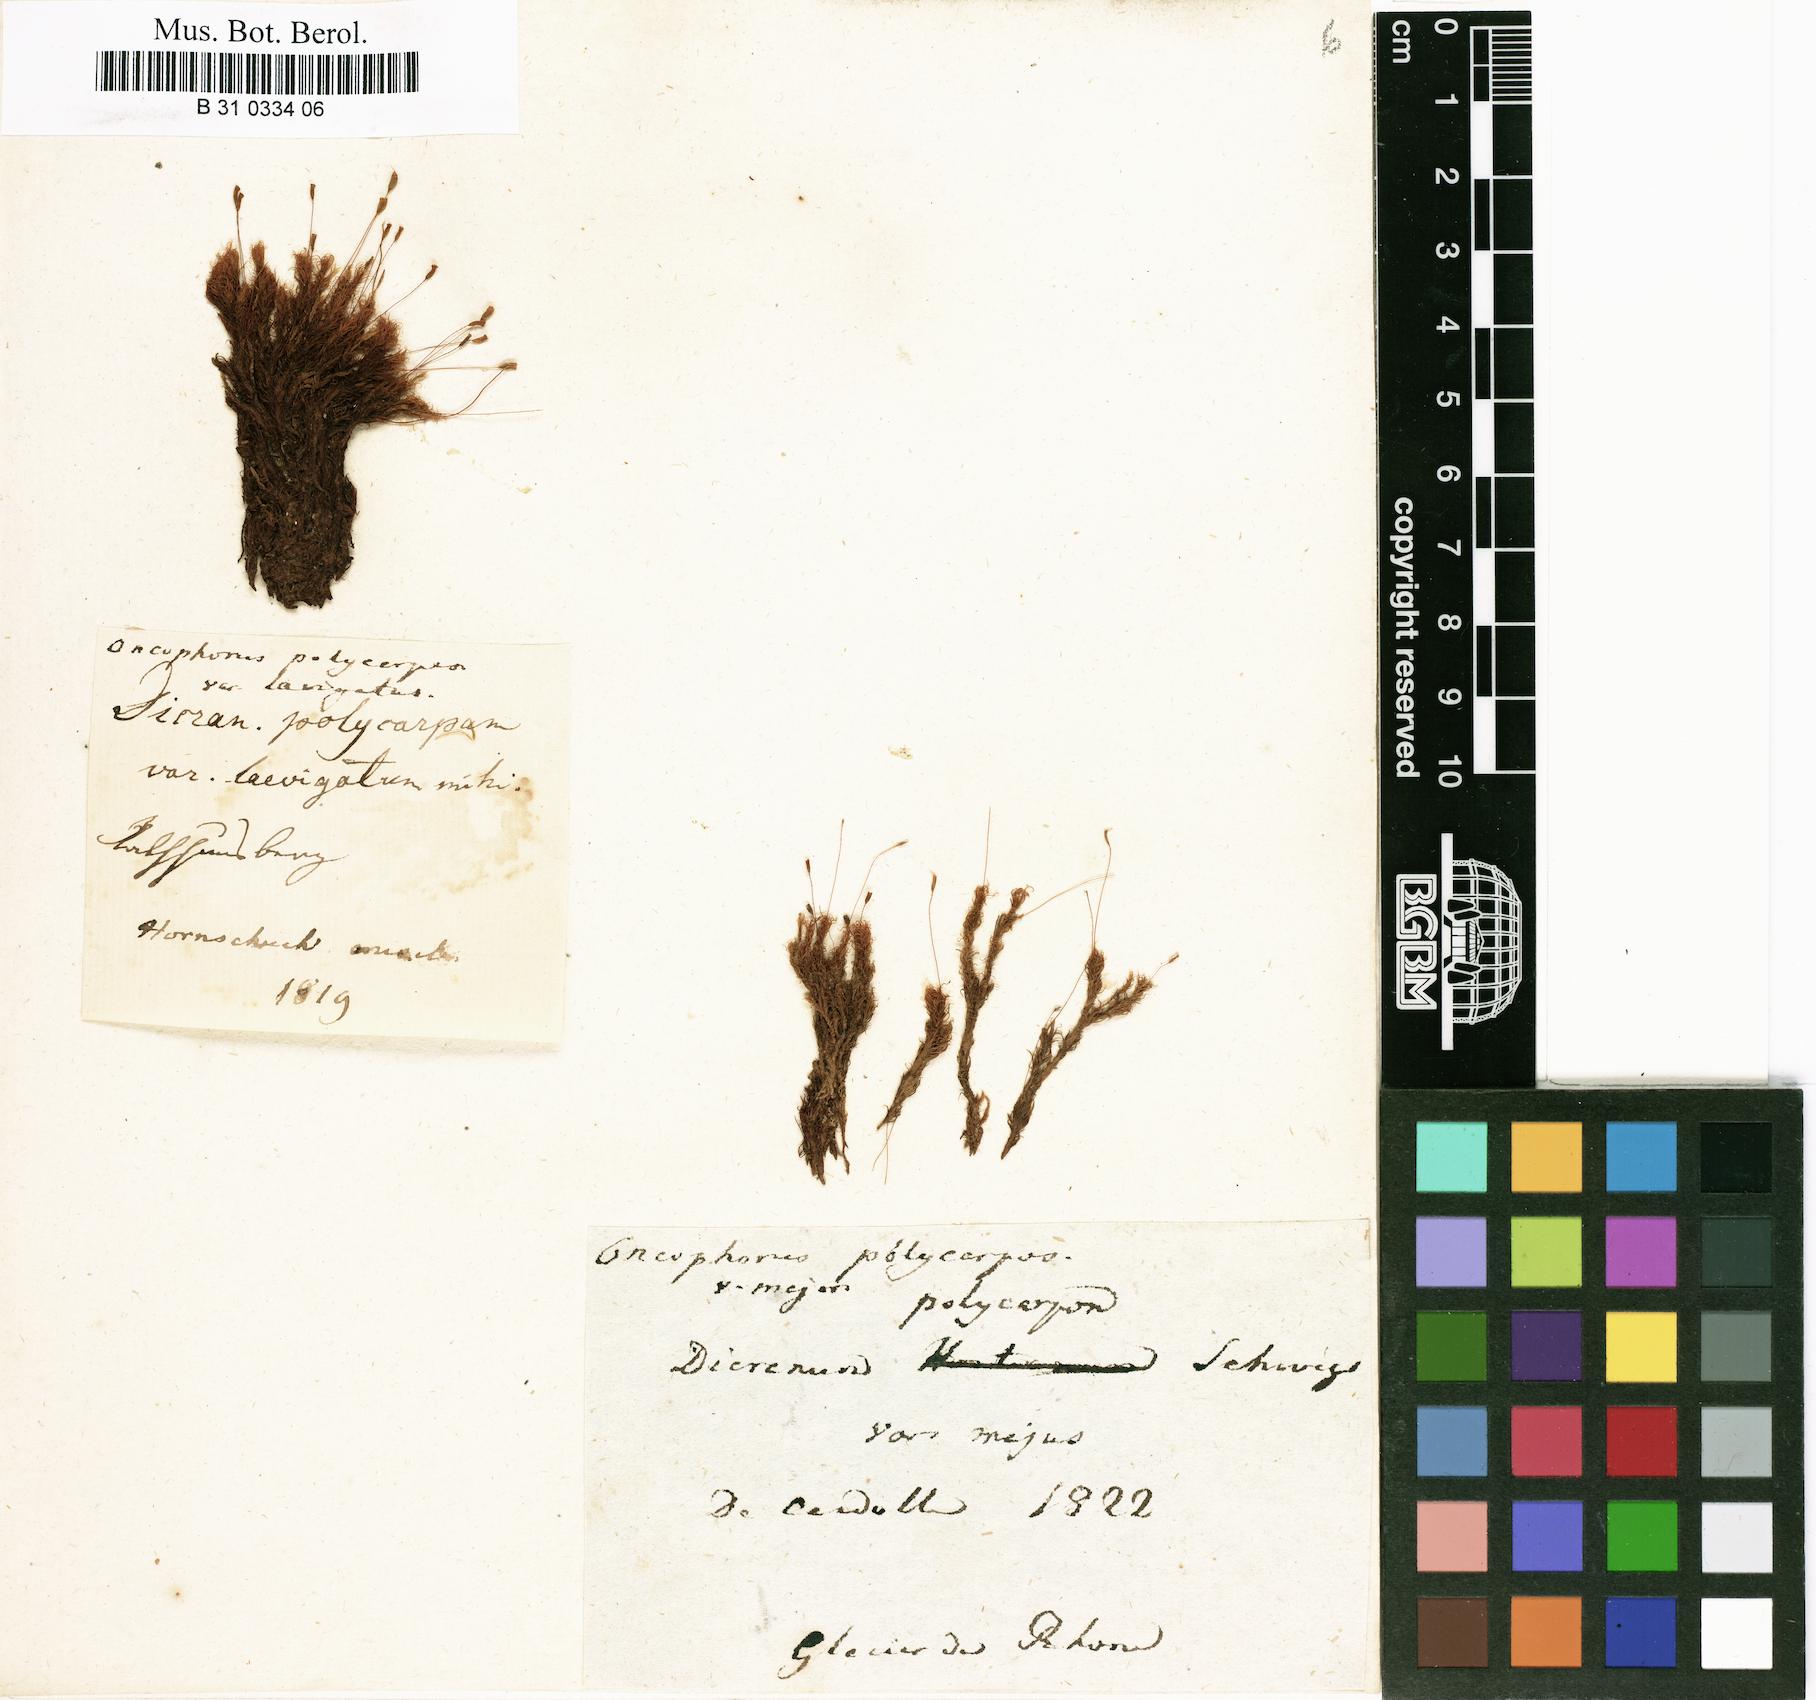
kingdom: Plantae
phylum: Bryophyta
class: Bryopsida
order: Dicranales
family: Rhabdoweisiaceae
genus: Cynodontium
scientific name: Cynodontium polycarpon
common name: Many-fruited dogtooth moss
